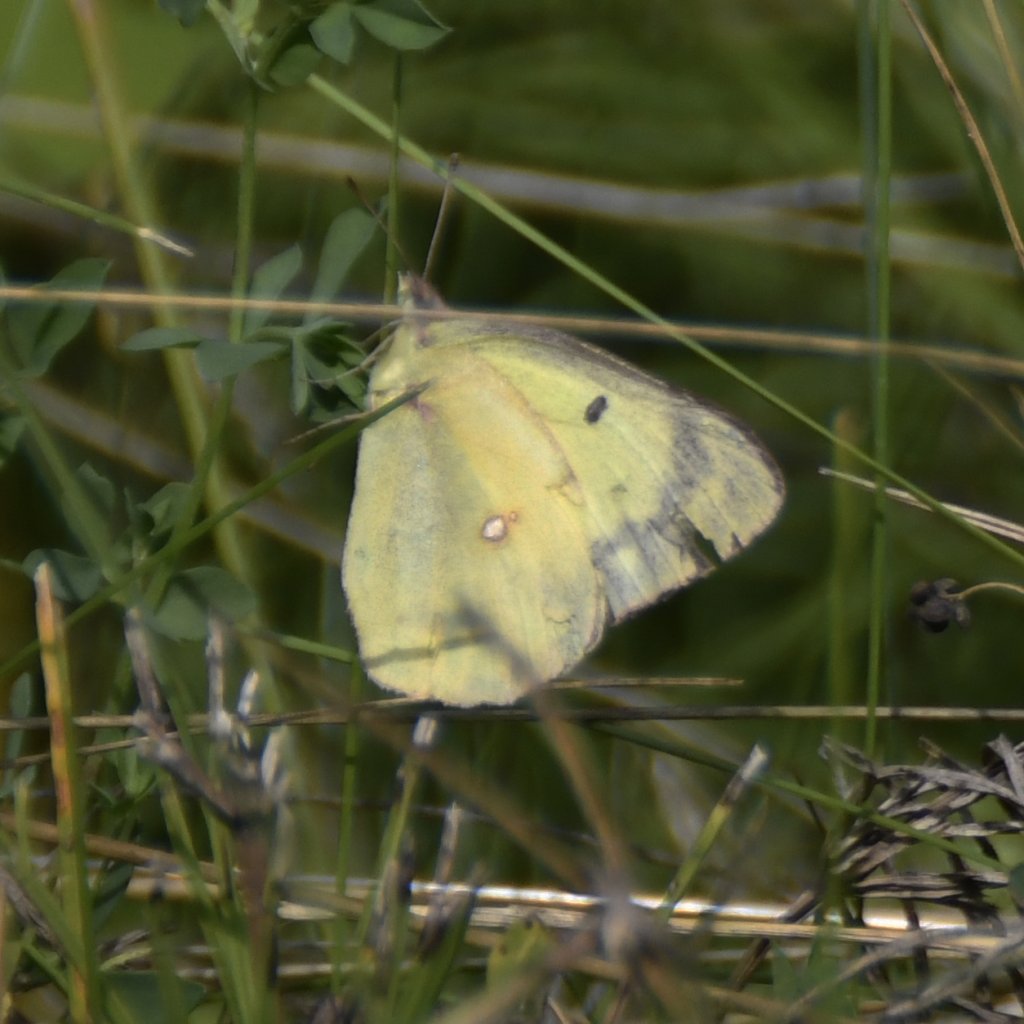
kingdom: Animalia
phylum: Arthropoda
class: Insecta
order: Lepidoptera
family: Pieridae
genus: Colias
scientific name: Colias
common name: Clouded Yellows
